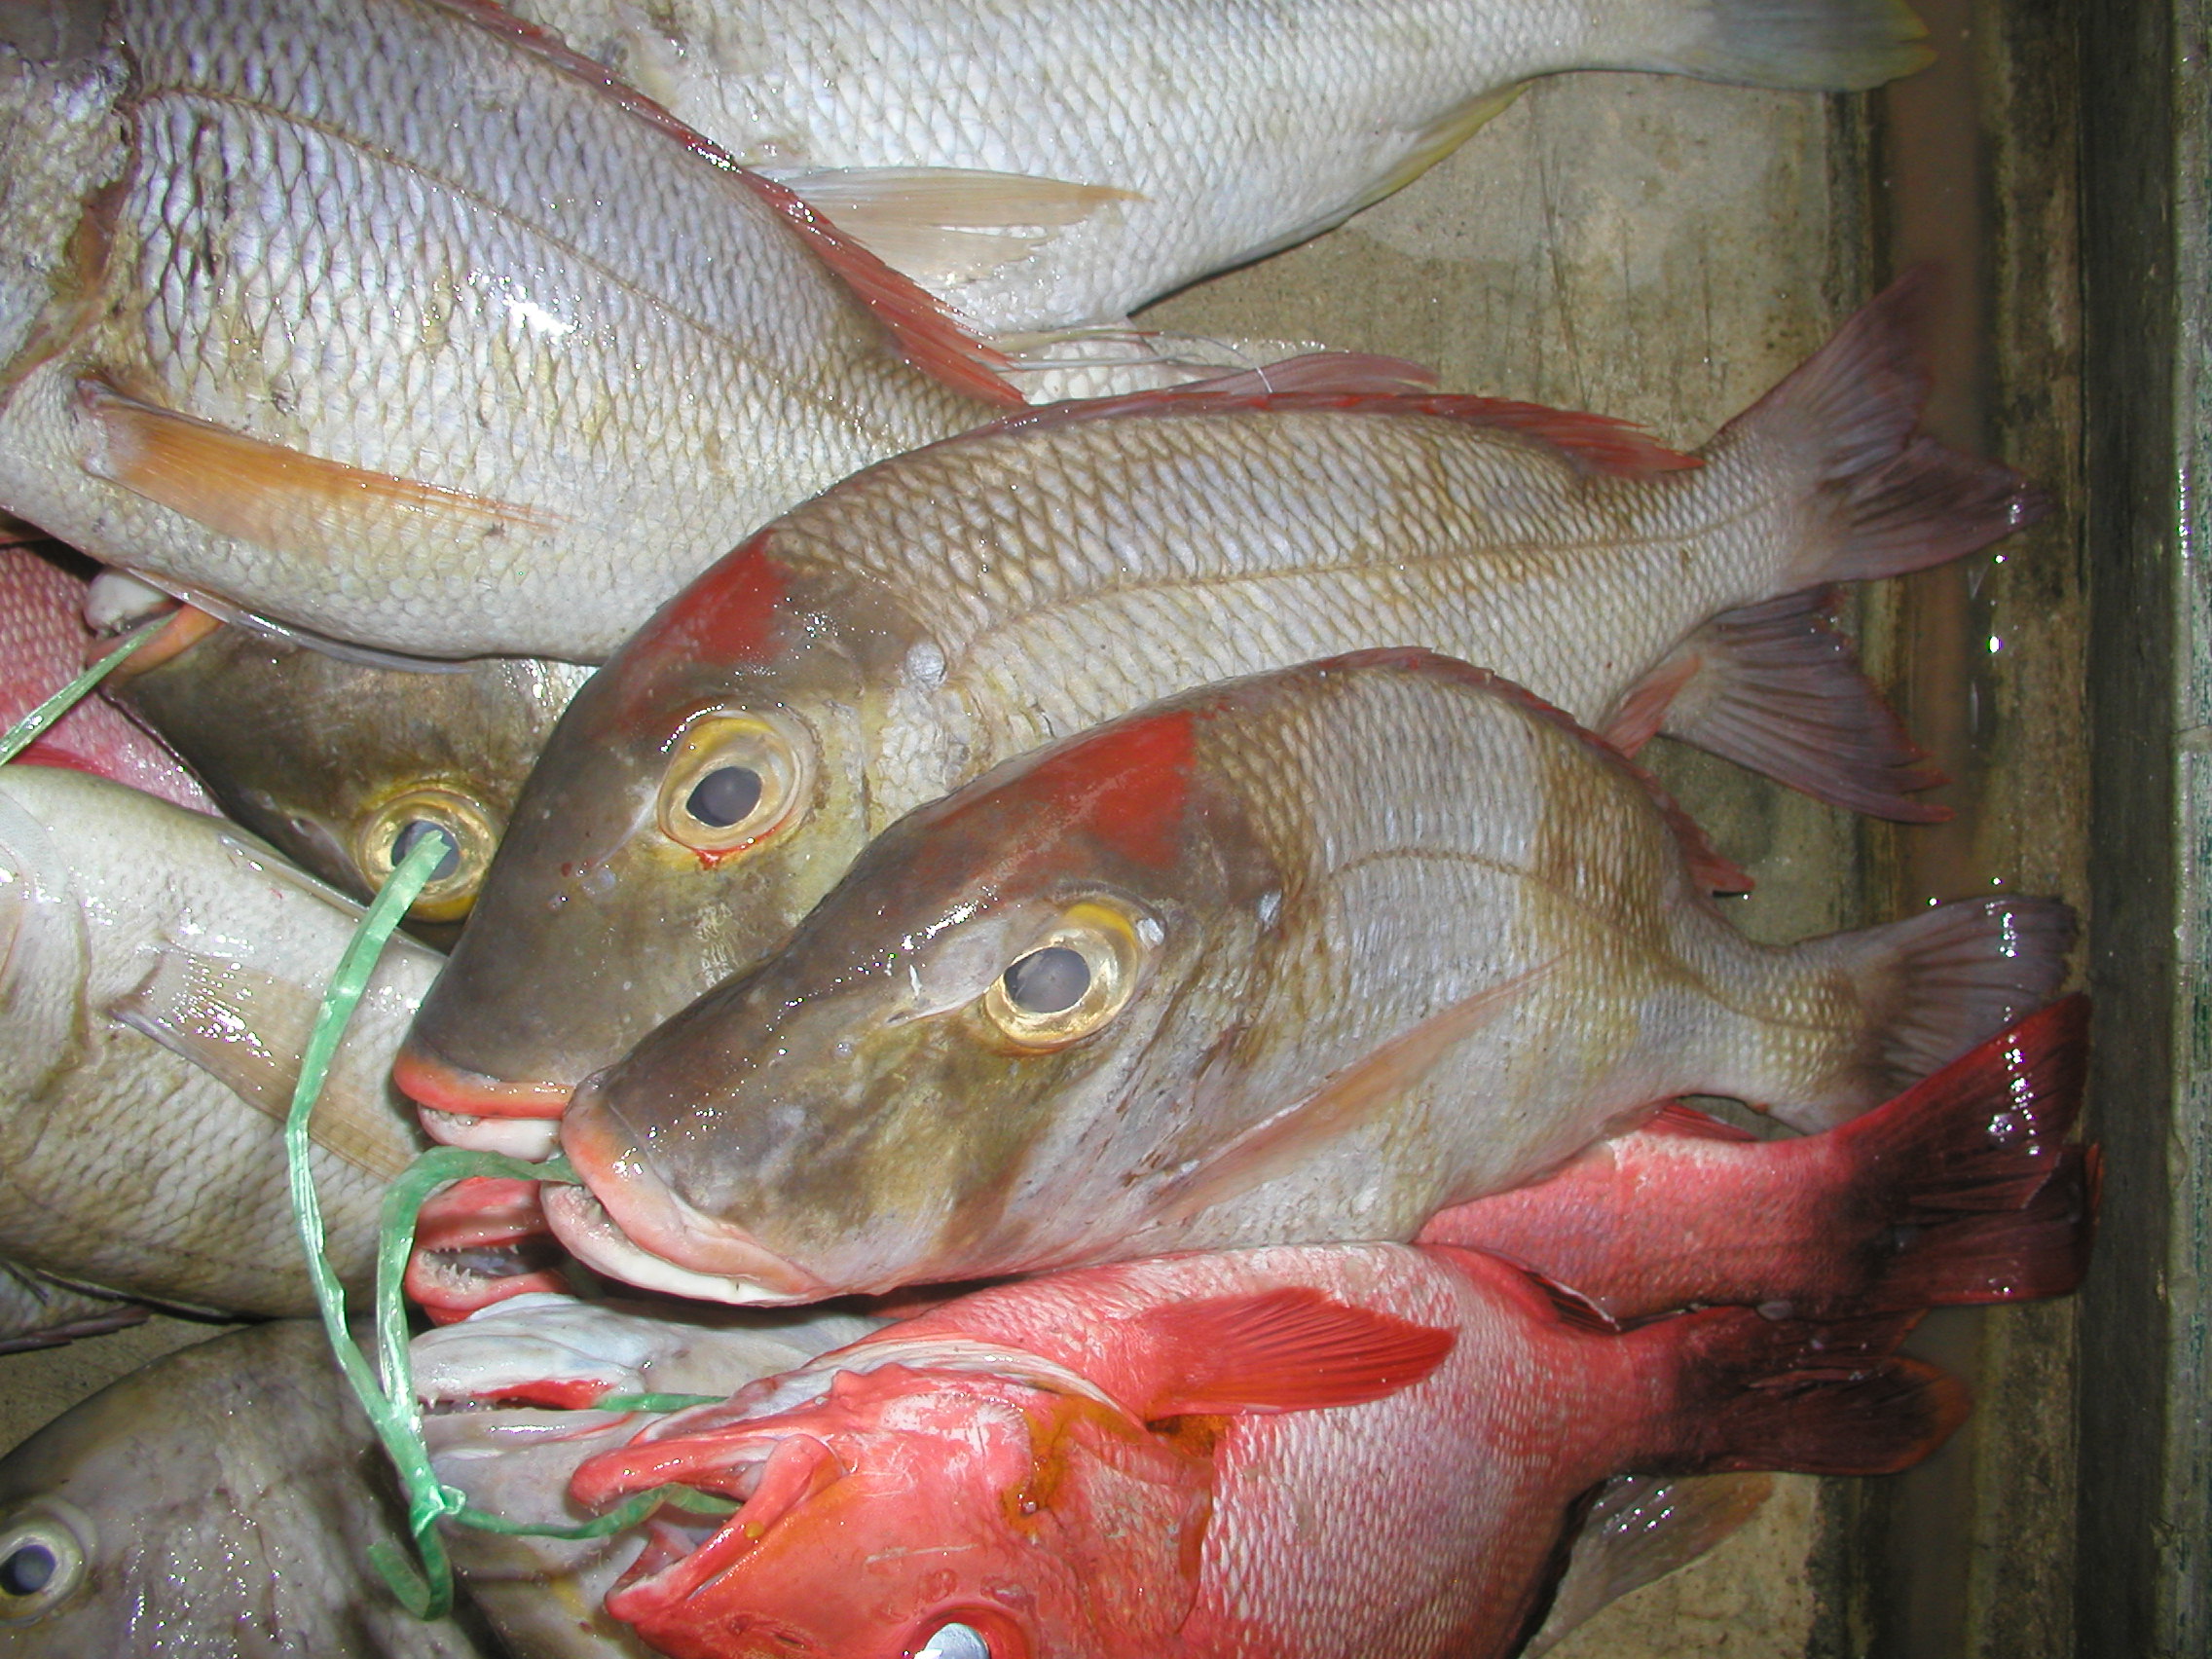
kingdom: Animalia
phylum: Chordata
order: Perciformes
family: Lethrinidae
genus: Lethrinus
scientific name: Lethrinus mahsena
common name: Sky emperor
